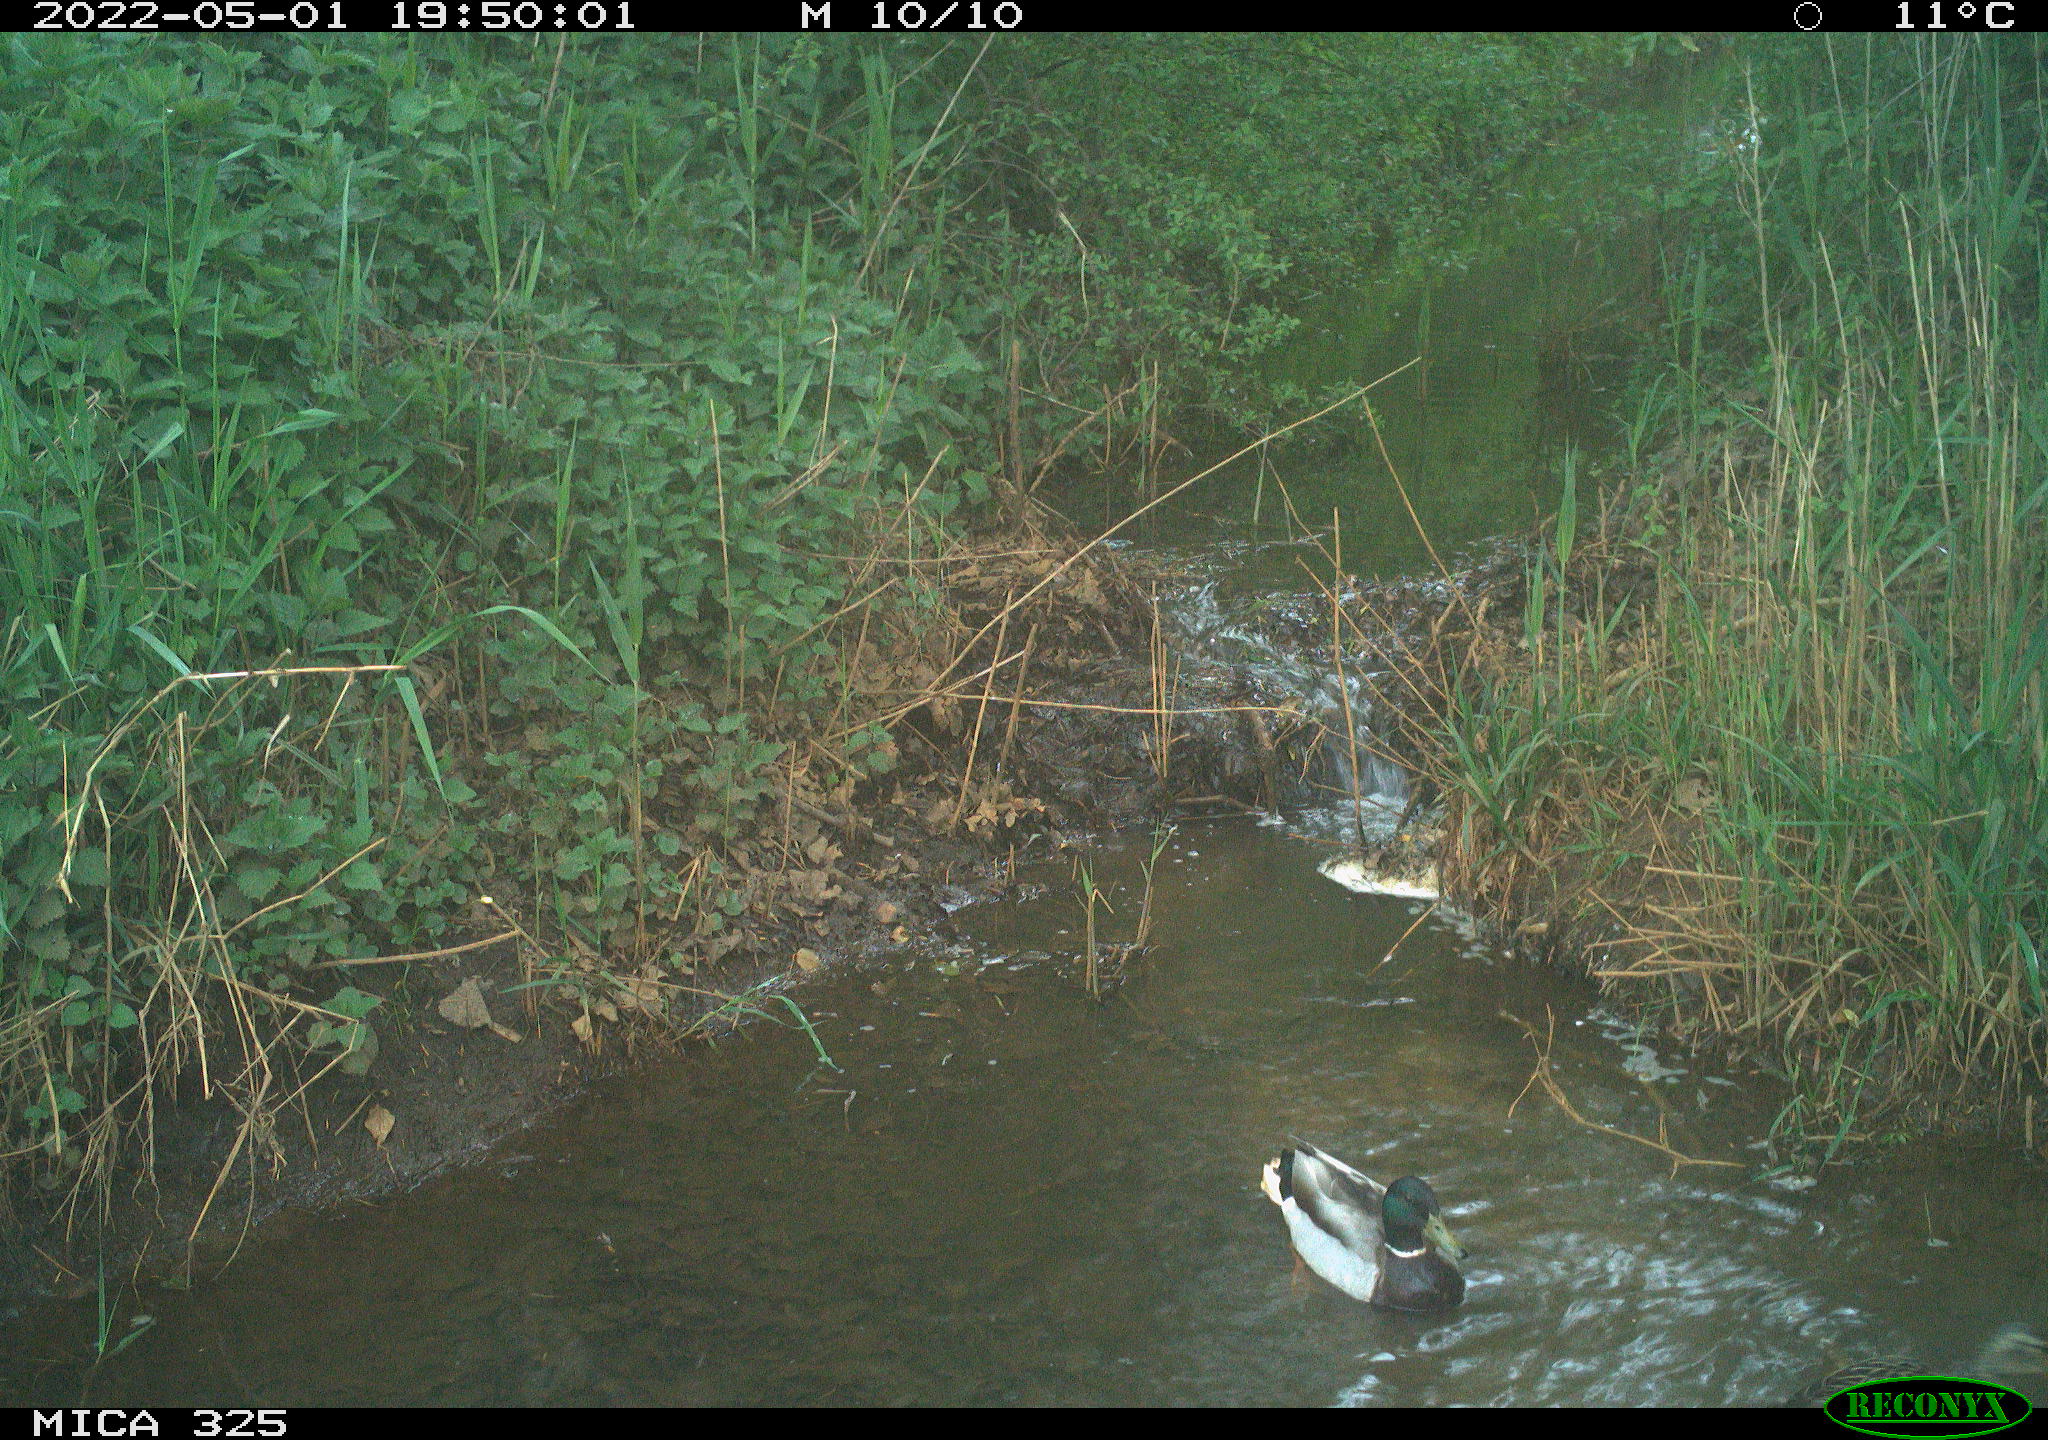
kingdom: Animalia
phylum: Chordata
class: Aves
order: Anseriformes
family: Anatidae
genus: Anas
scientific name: Anas platyrhynchos
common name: Mallard
